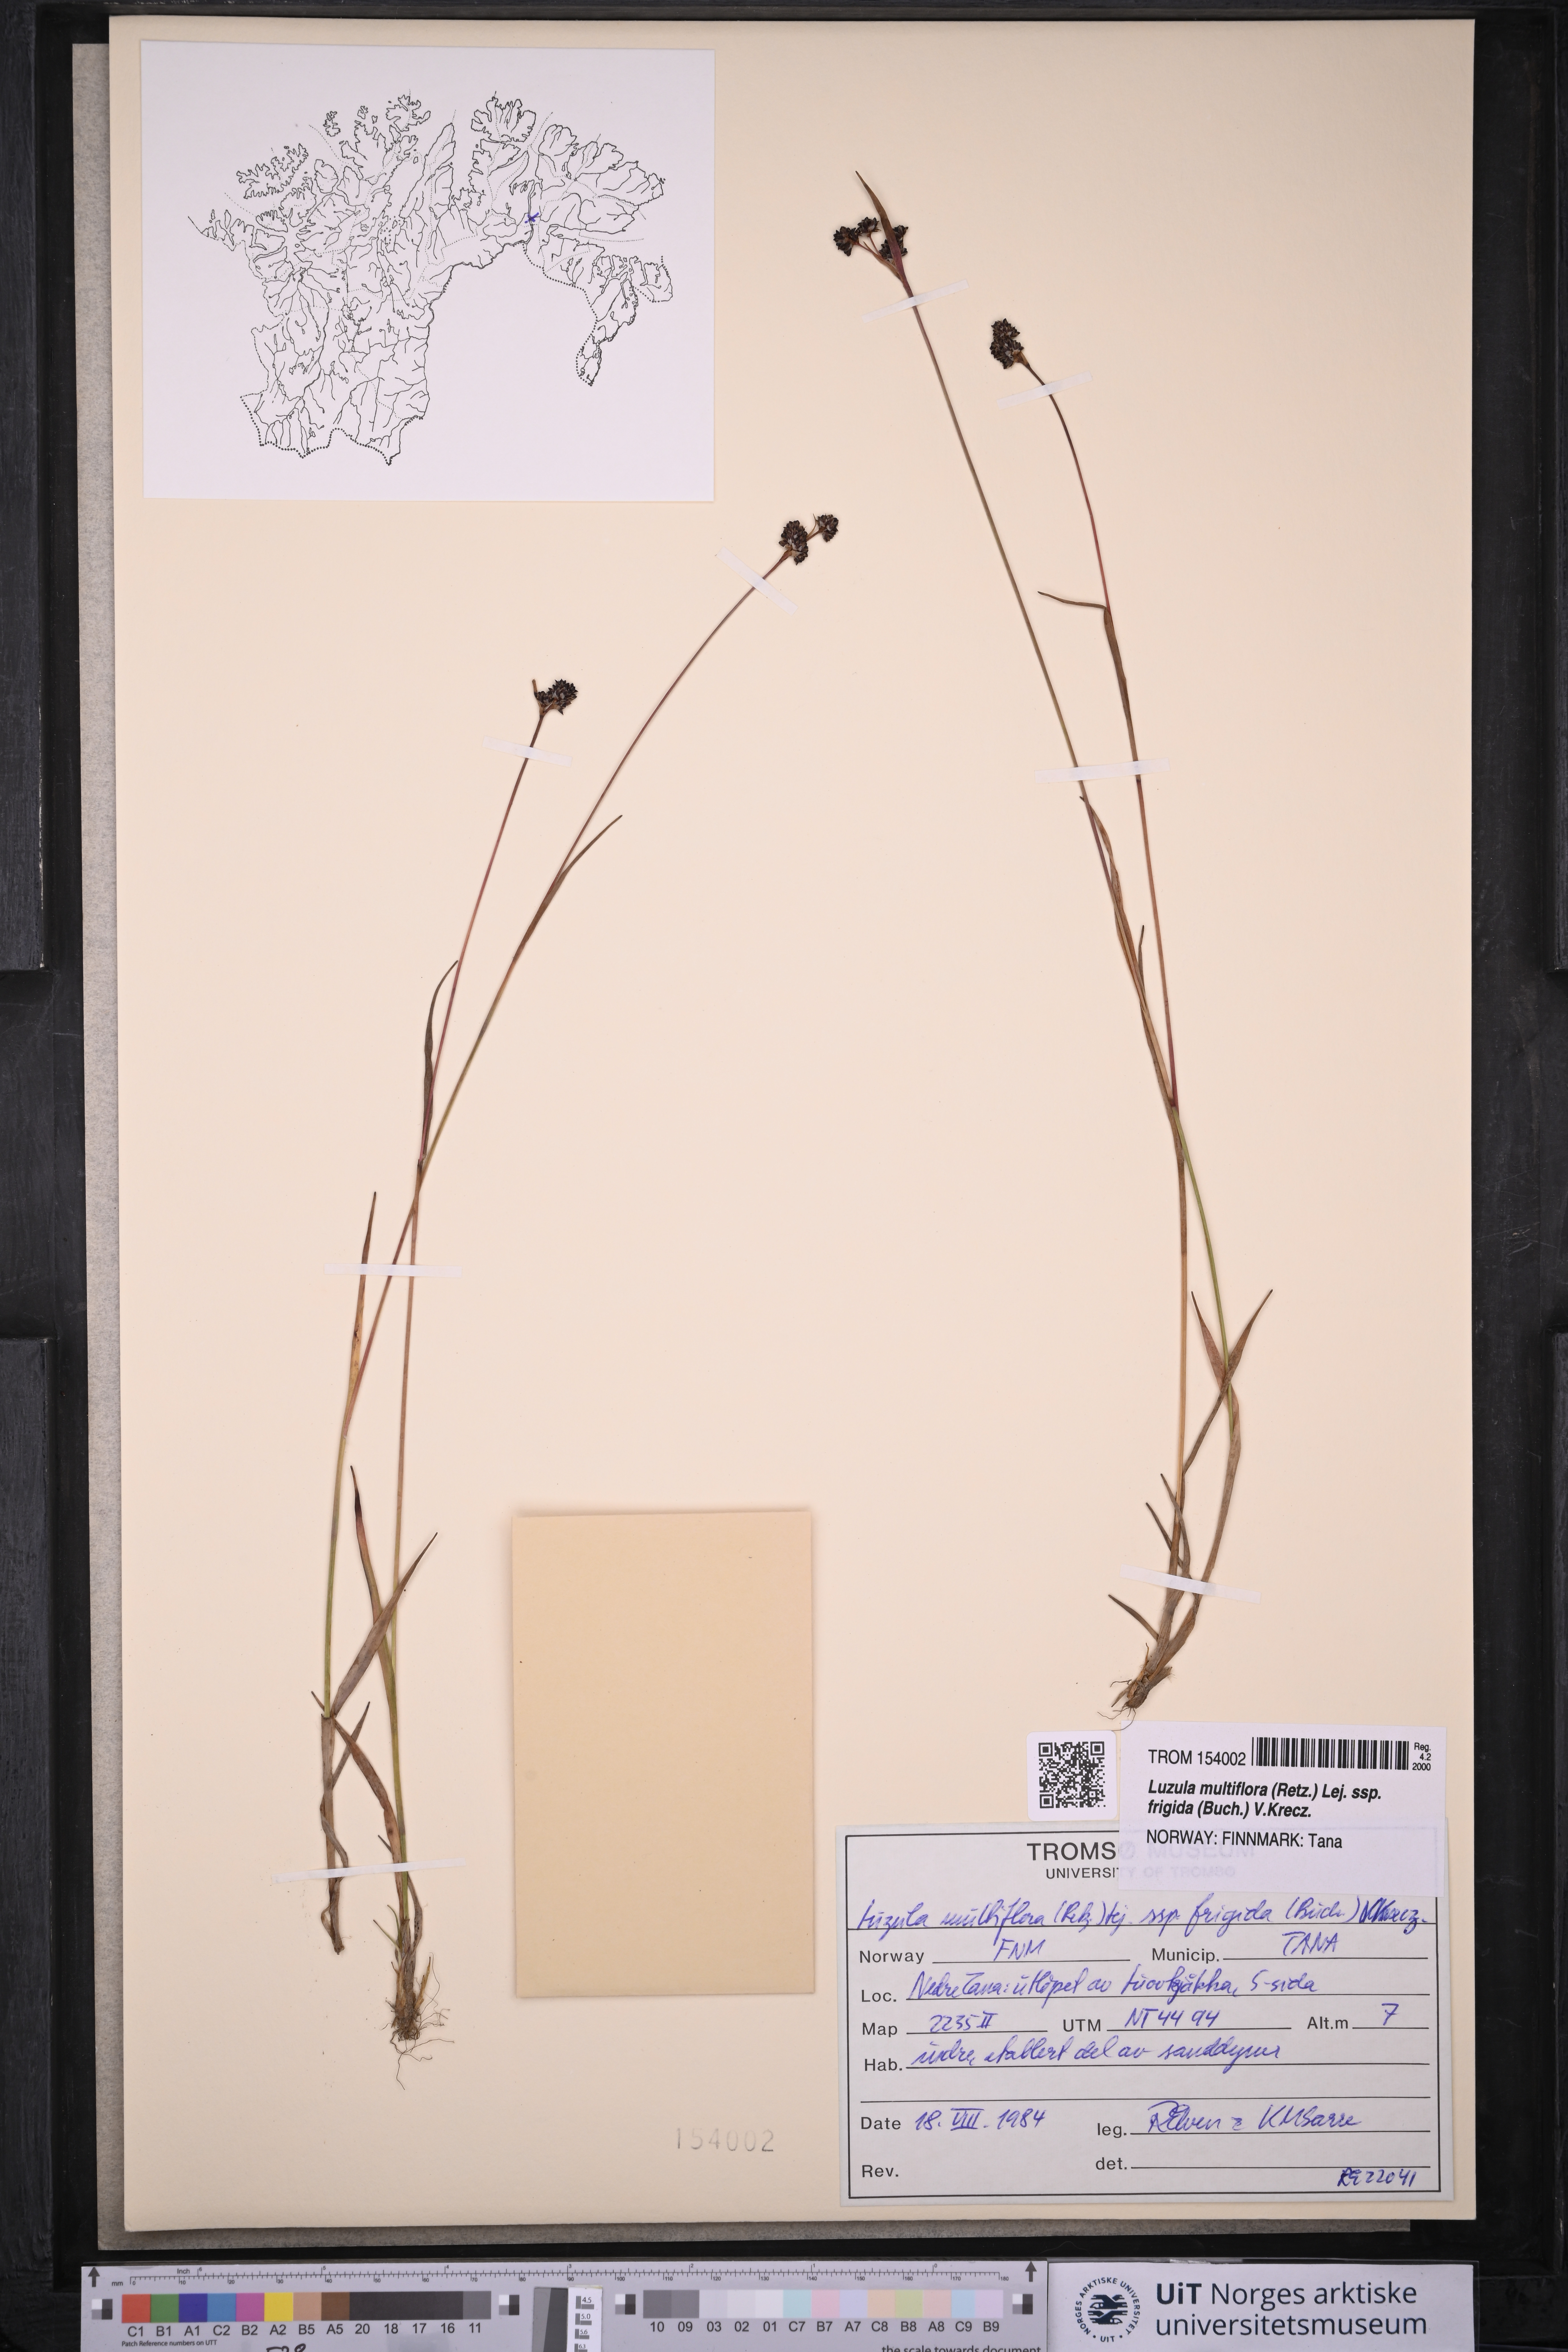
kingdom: Plantae
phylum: Tracheophyta
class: Liliopsida
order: Poales
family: Juncaceae
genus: Luzula
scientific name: Luzula multiflora
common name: Heath wood-rush
